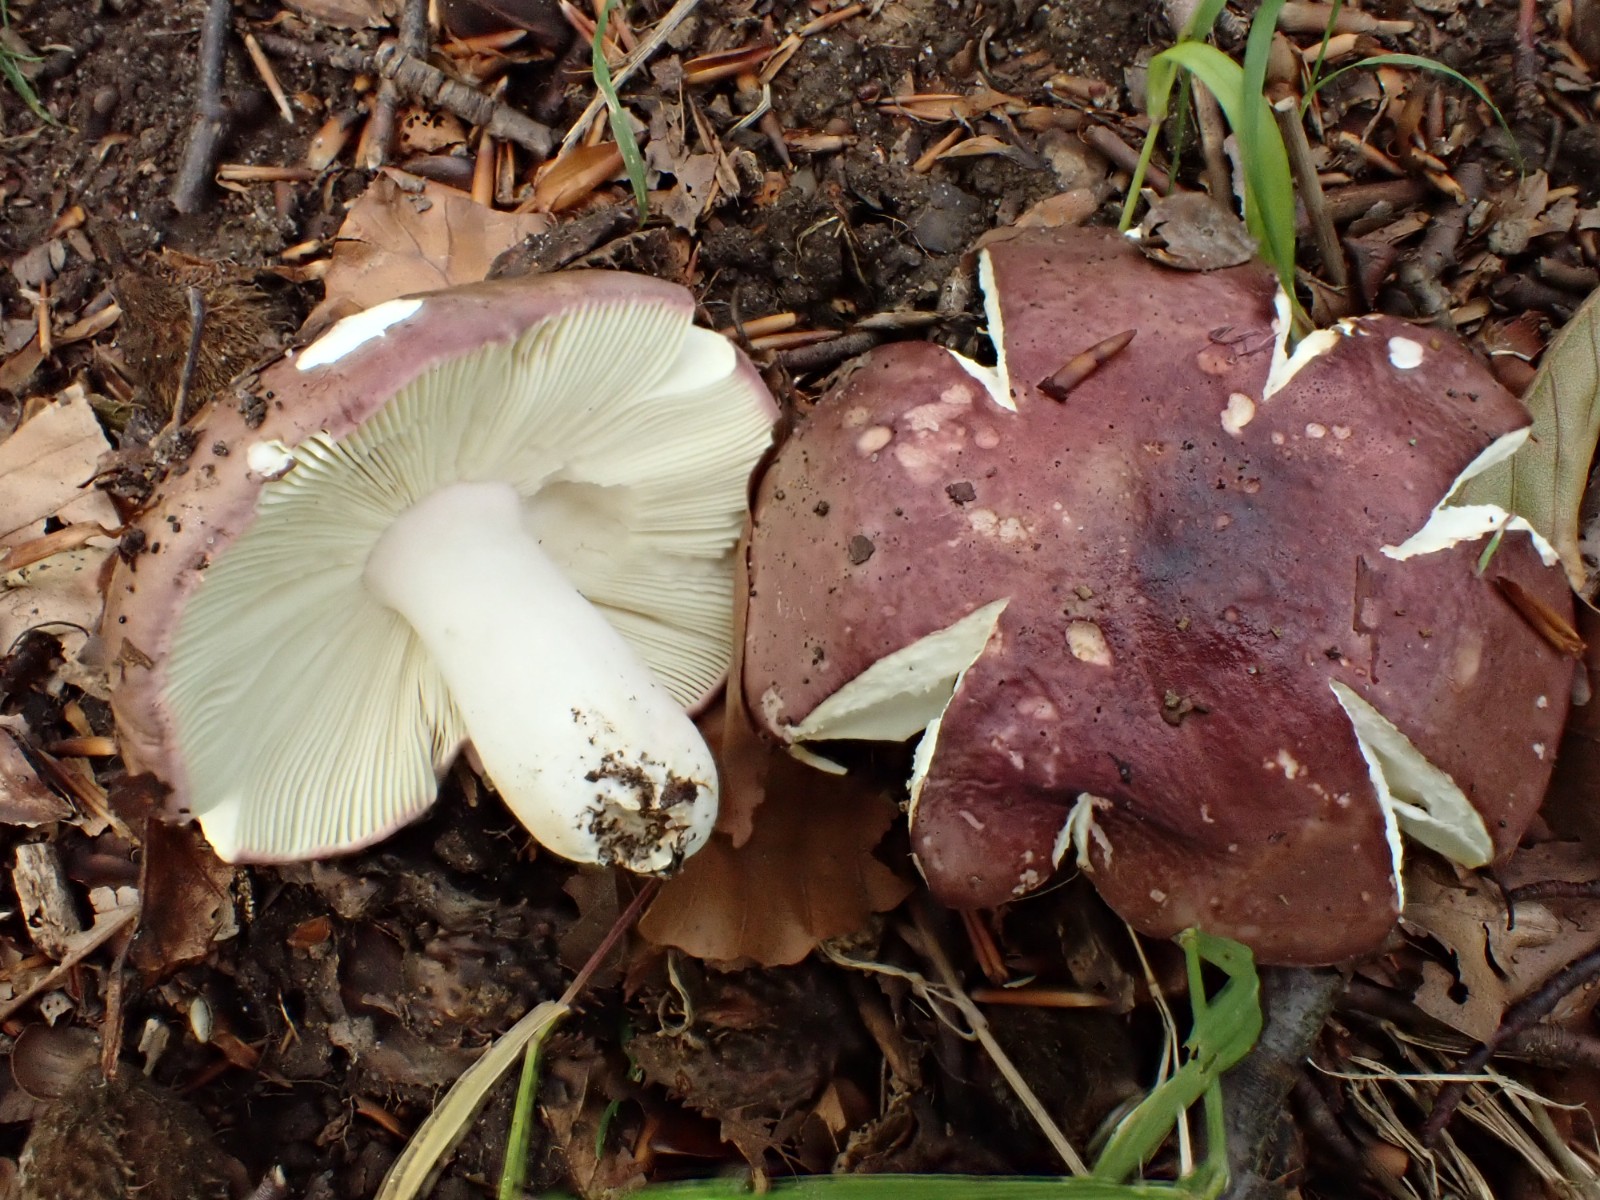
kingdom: Fungi
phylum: Basidiomycota
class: Agaricomycetes
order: Russulales
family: Russulaceae
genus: Russula
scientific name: Russula olivacea
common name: stor skørhat
